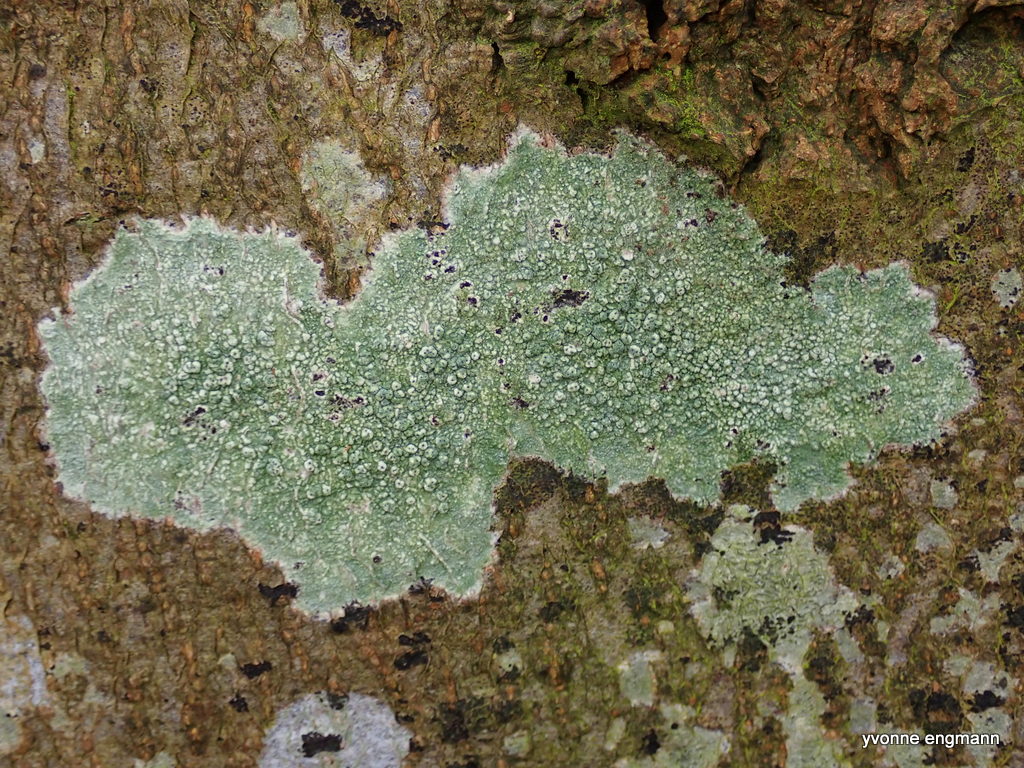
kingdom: Fungi
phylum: Ascomycota
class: Lecanoromycetes
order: Pertusariales
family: Pertusariaceae
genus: Pertusaria
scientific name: Pertusaria pertusa
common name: almindelig prikvortelav
